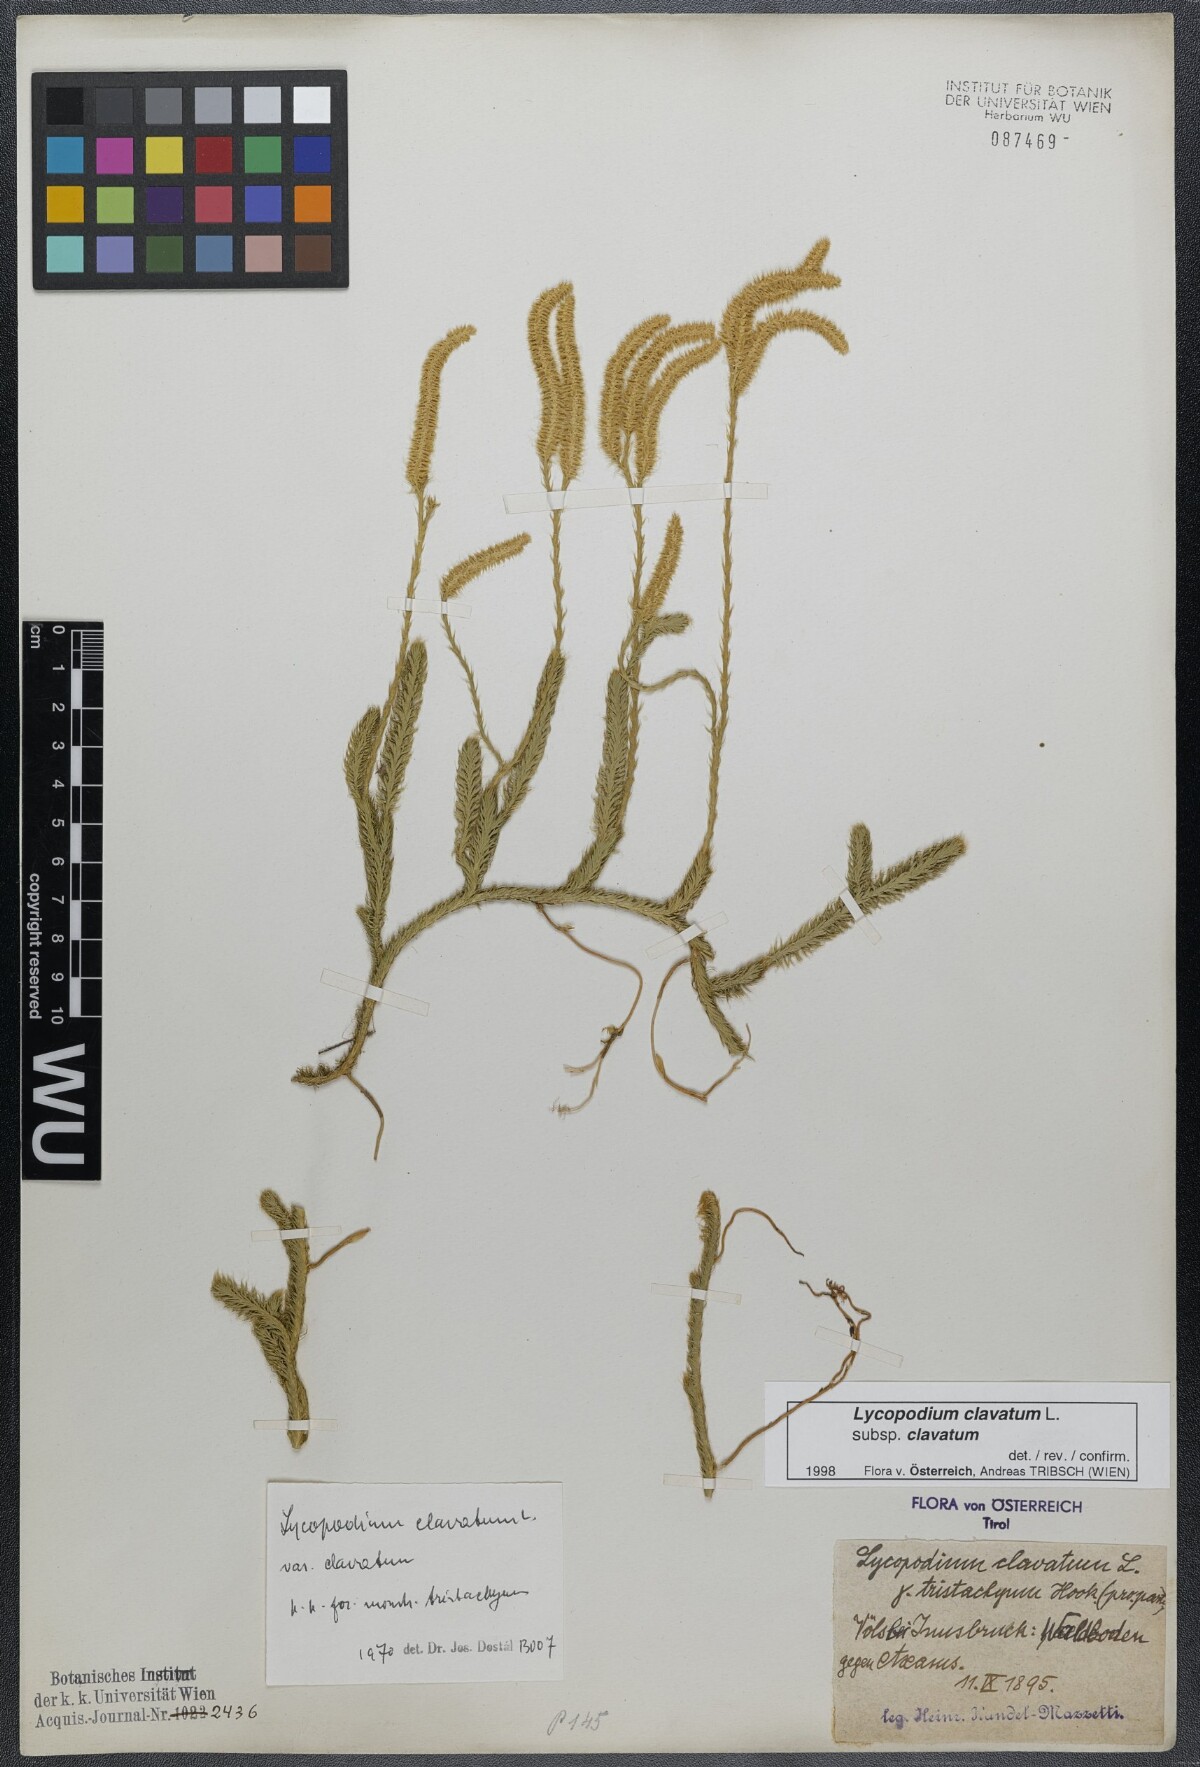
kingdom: Plantae
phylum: Tracheophyta
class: Lycopodiopsida
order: Lycopodiales
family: Lycopodiaceae
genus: Lycopodium
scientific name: Lycopodium clavatum
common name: Stag's-horn clubmoss
